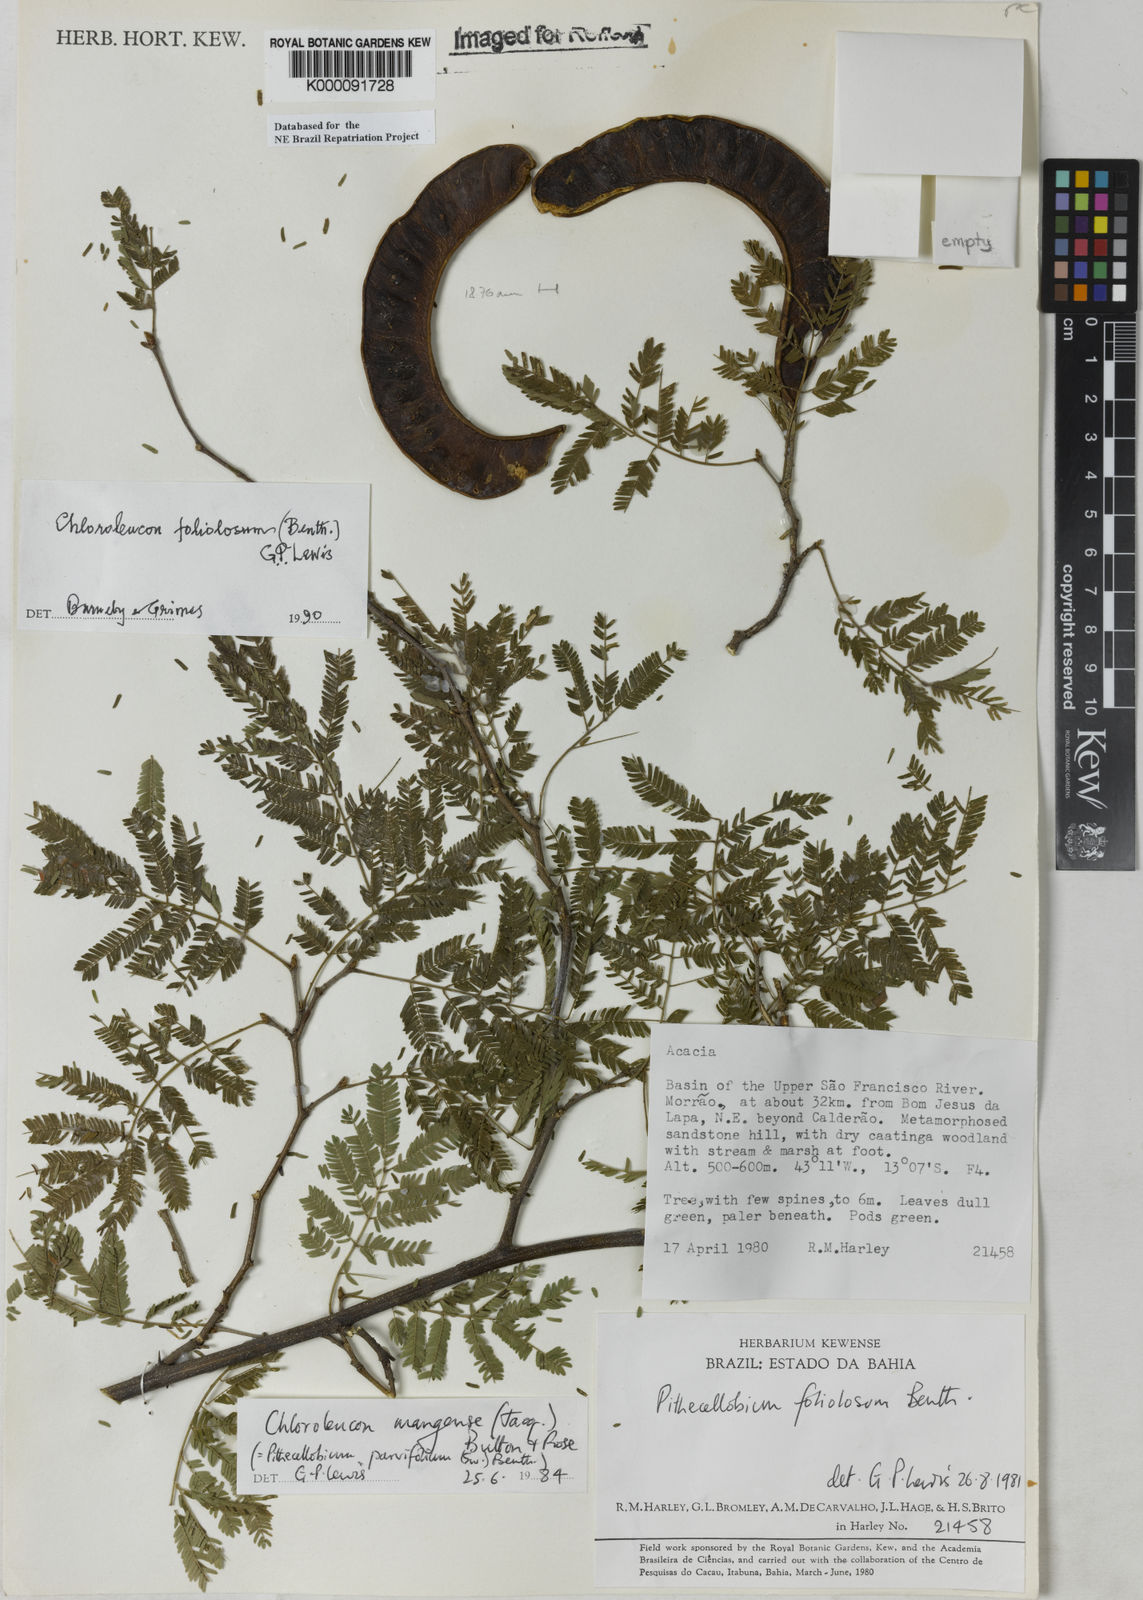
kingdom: Plantae
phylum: Tracheophyta
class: Magnoliopsida
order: Fabales
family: Fabaceae
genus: Chloroleucon
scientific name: Chloroleucon foliolosum
